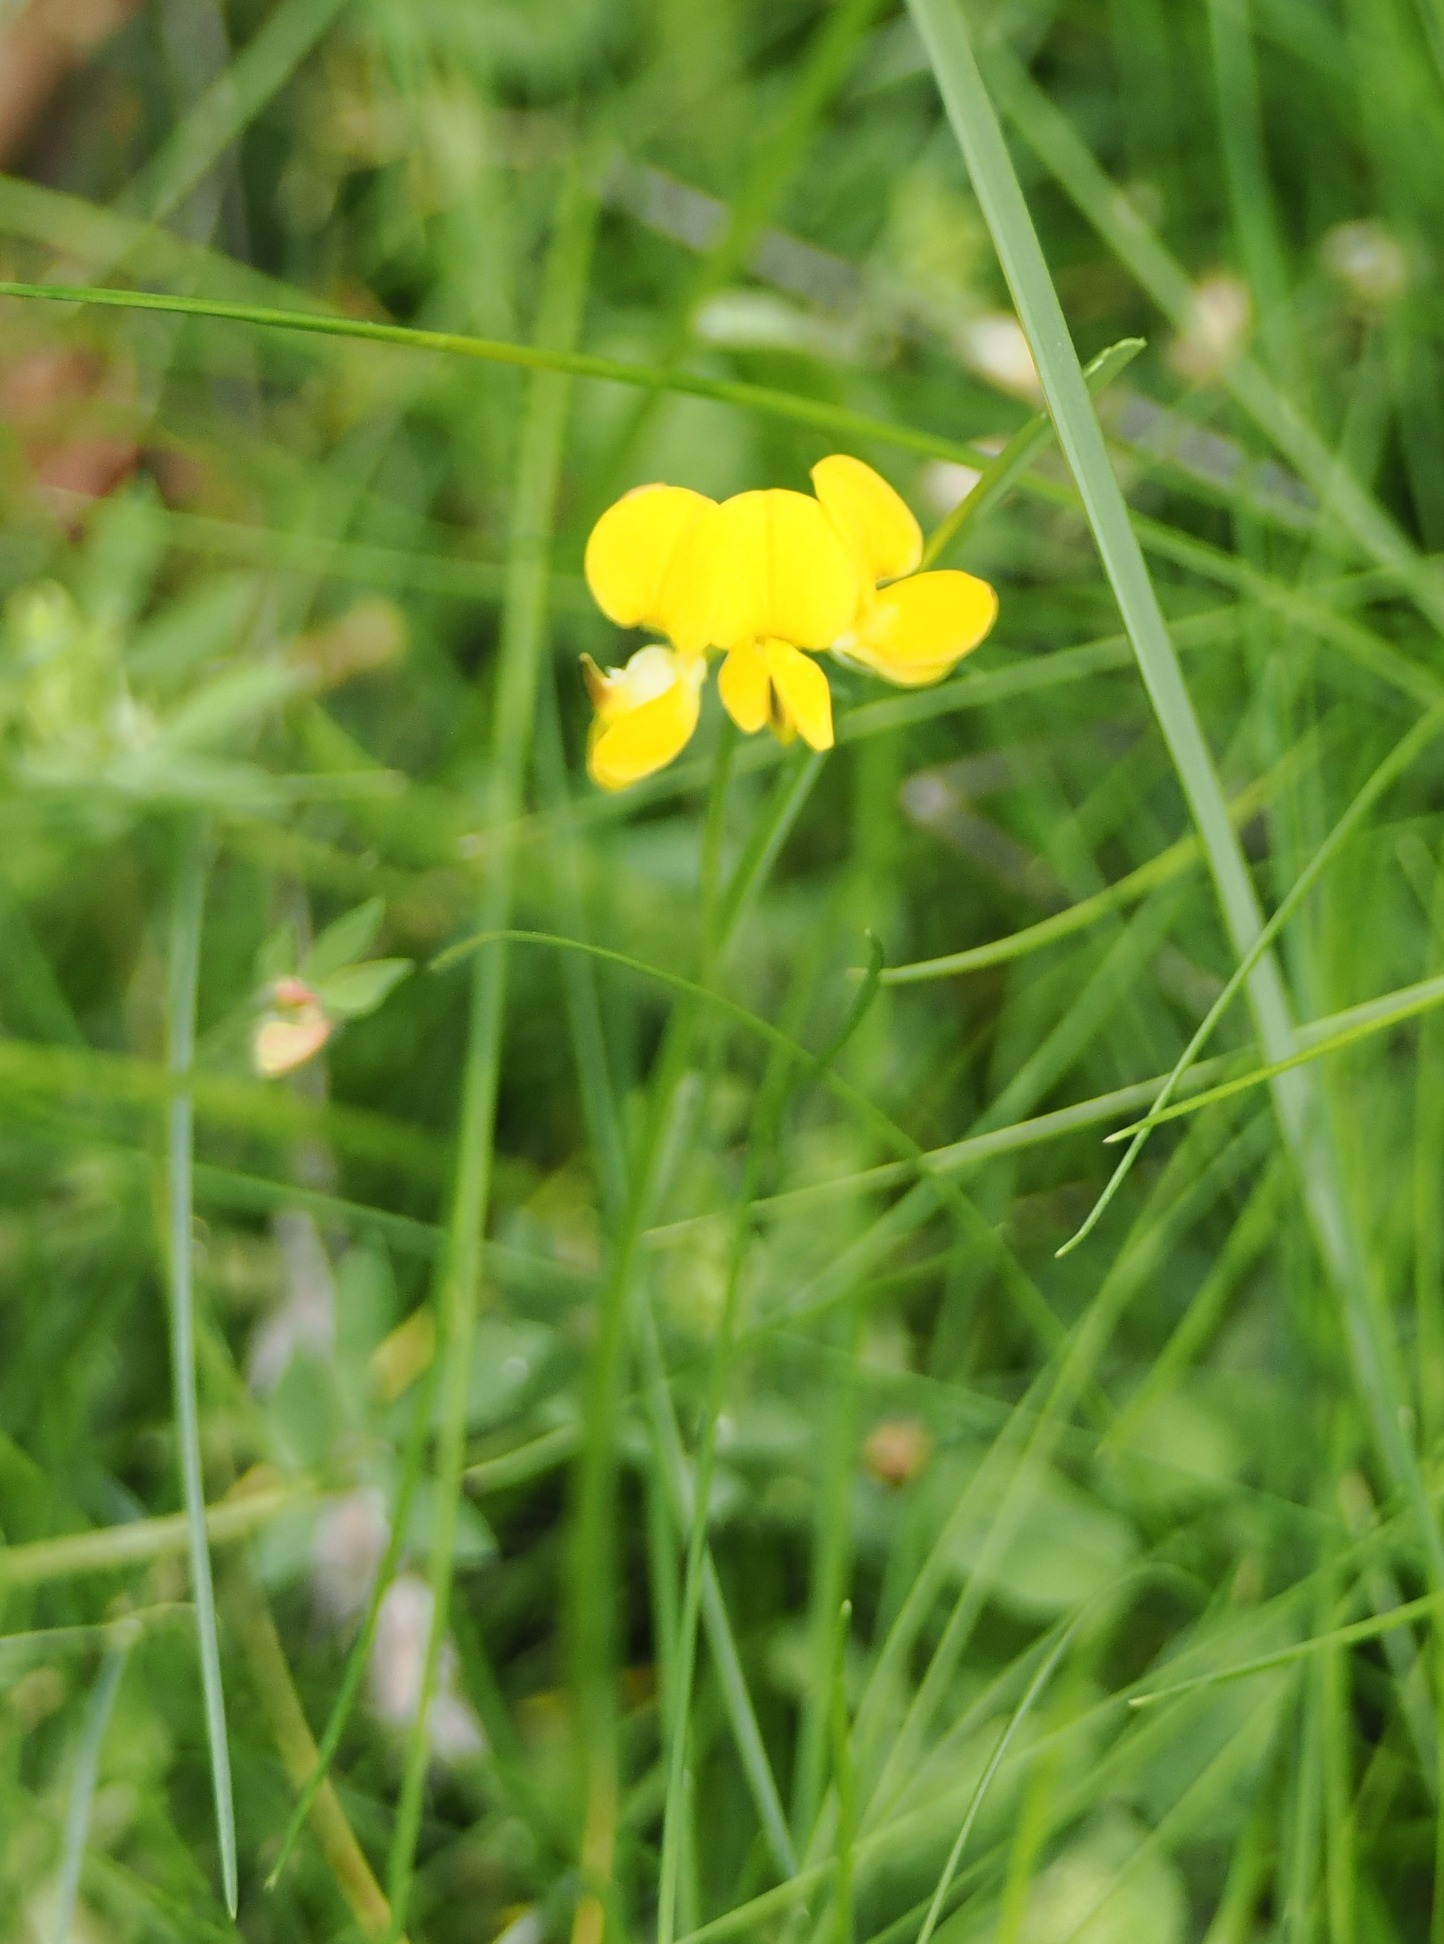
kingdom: Plantae
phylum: Tracheophyta
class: Magnoliopsida
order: Fabales
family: Fabaceae
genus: Lotus
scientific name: Lotus corniculatus
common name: Almindelig kællingetand
